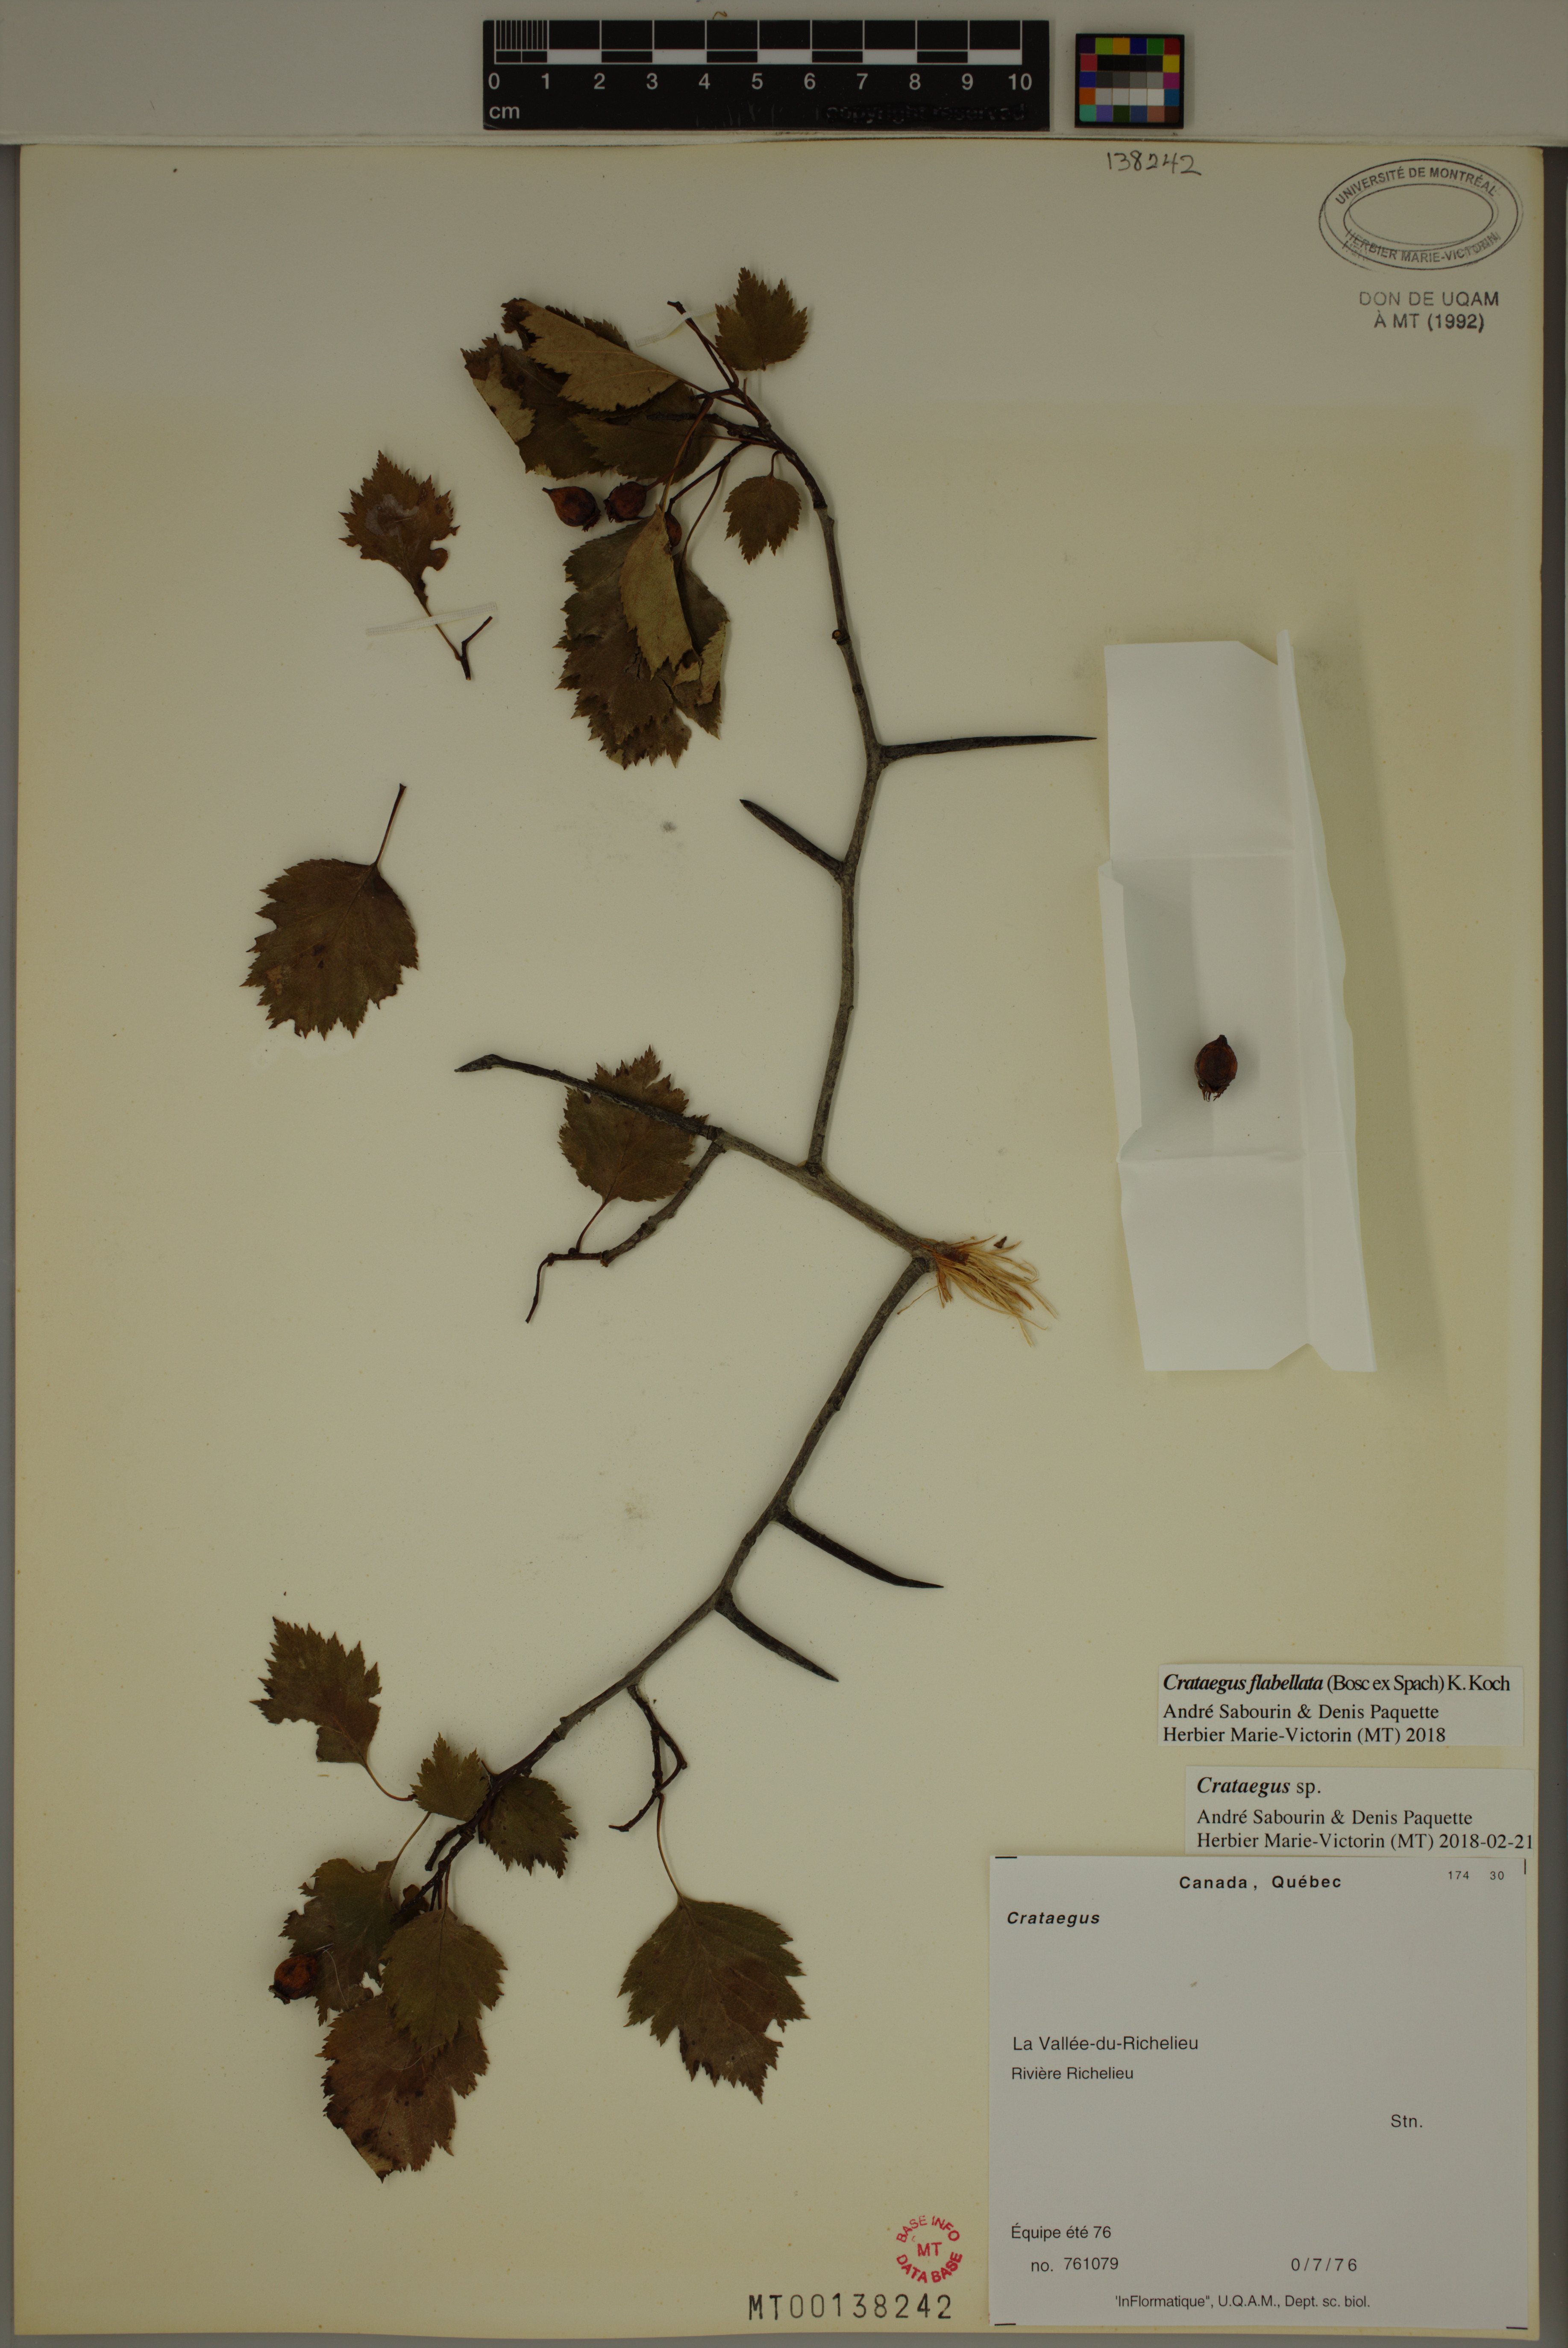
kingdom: Plantae
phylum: Tracheophyta
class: Magnoliopsida
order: Rosales
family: Rosaceae
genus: Crataegus
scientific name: Crataegus flabellata
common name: Bosc's hawthorn
